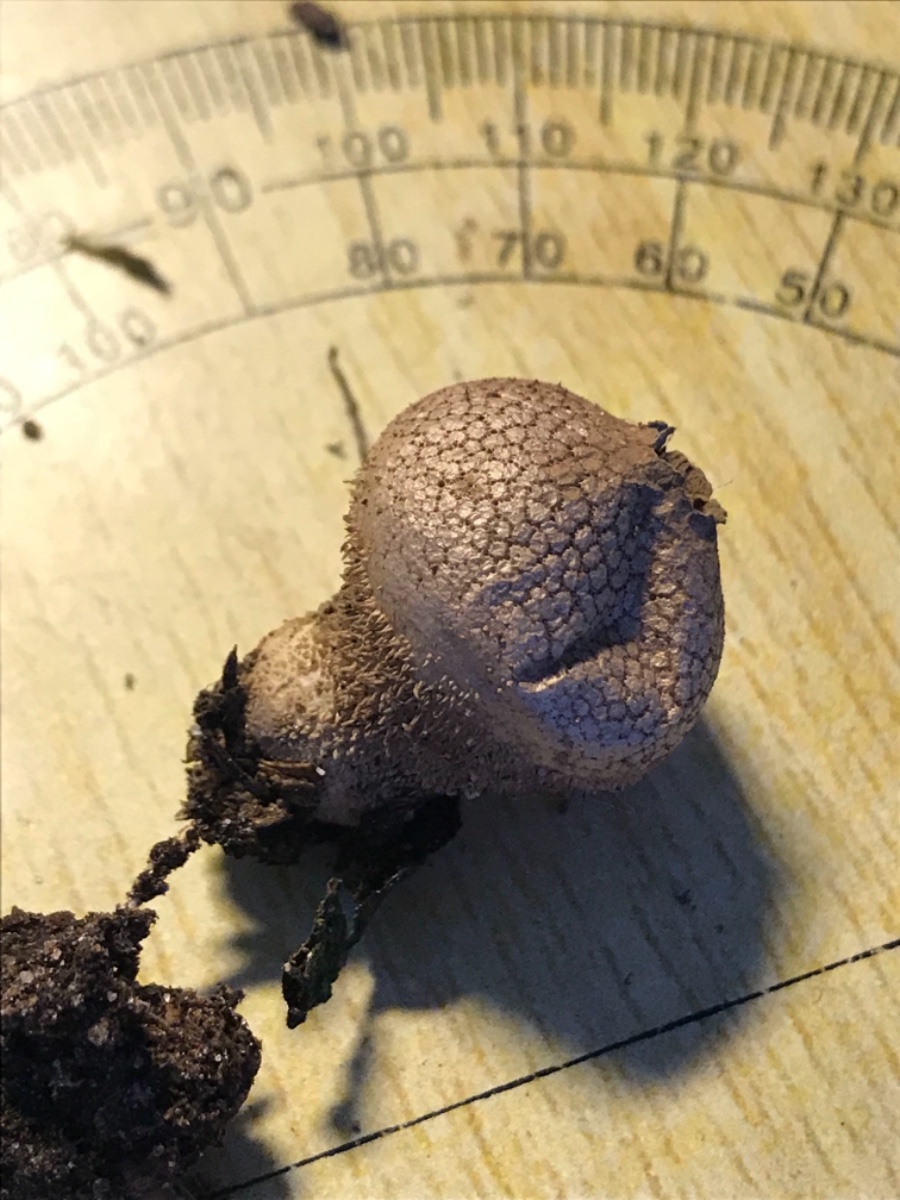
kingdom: Fungi
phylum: Basidiomycota
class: Agaricomycetes
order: Agaricales
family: Lycoperdaceae
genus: Lycoperdon
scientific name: Lycoperdon nigrescens
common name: sortagtig støvbold
